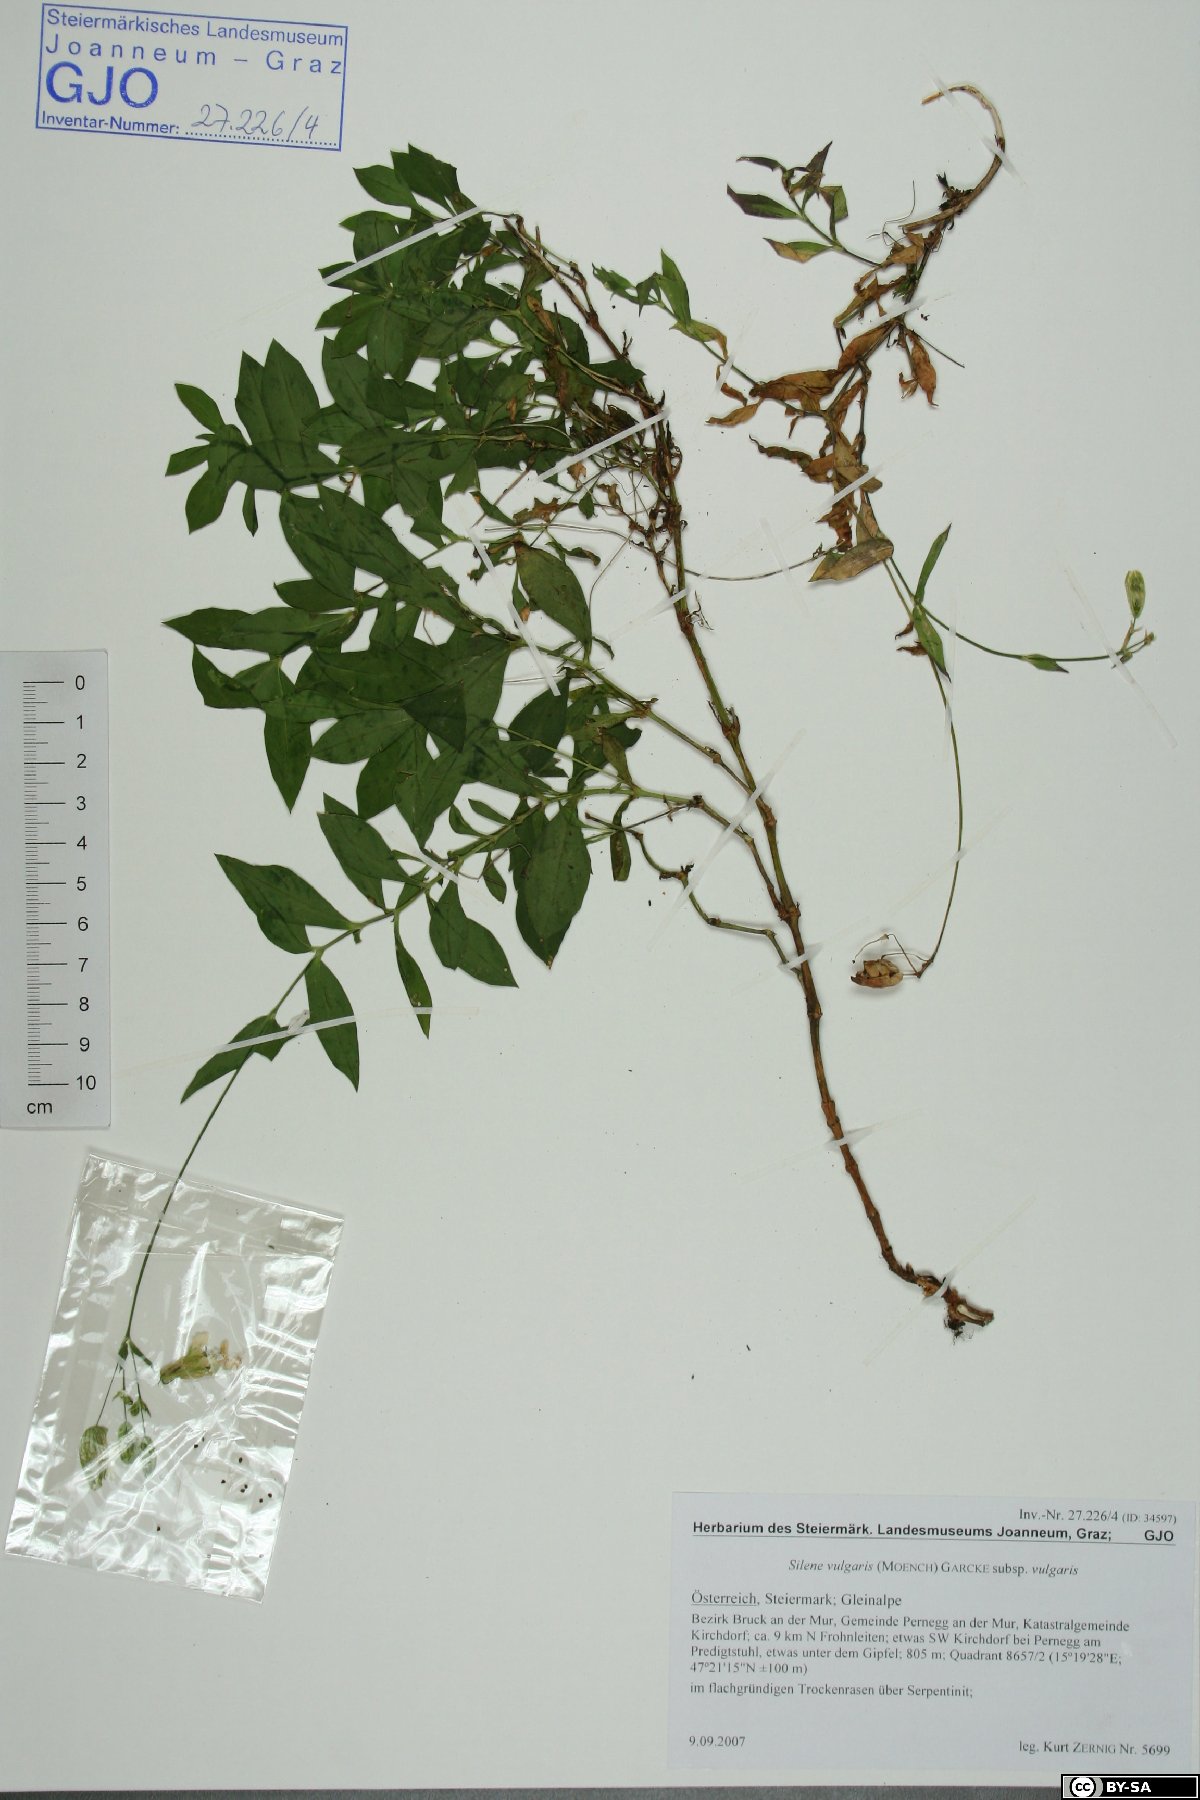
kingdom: Plantae
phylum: Tracheophyta
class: Magnoliopsida
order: Caryophyllales
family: Caryophyllaceae
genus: Silene
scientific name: Silene vulgaris
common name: Bladder campion
